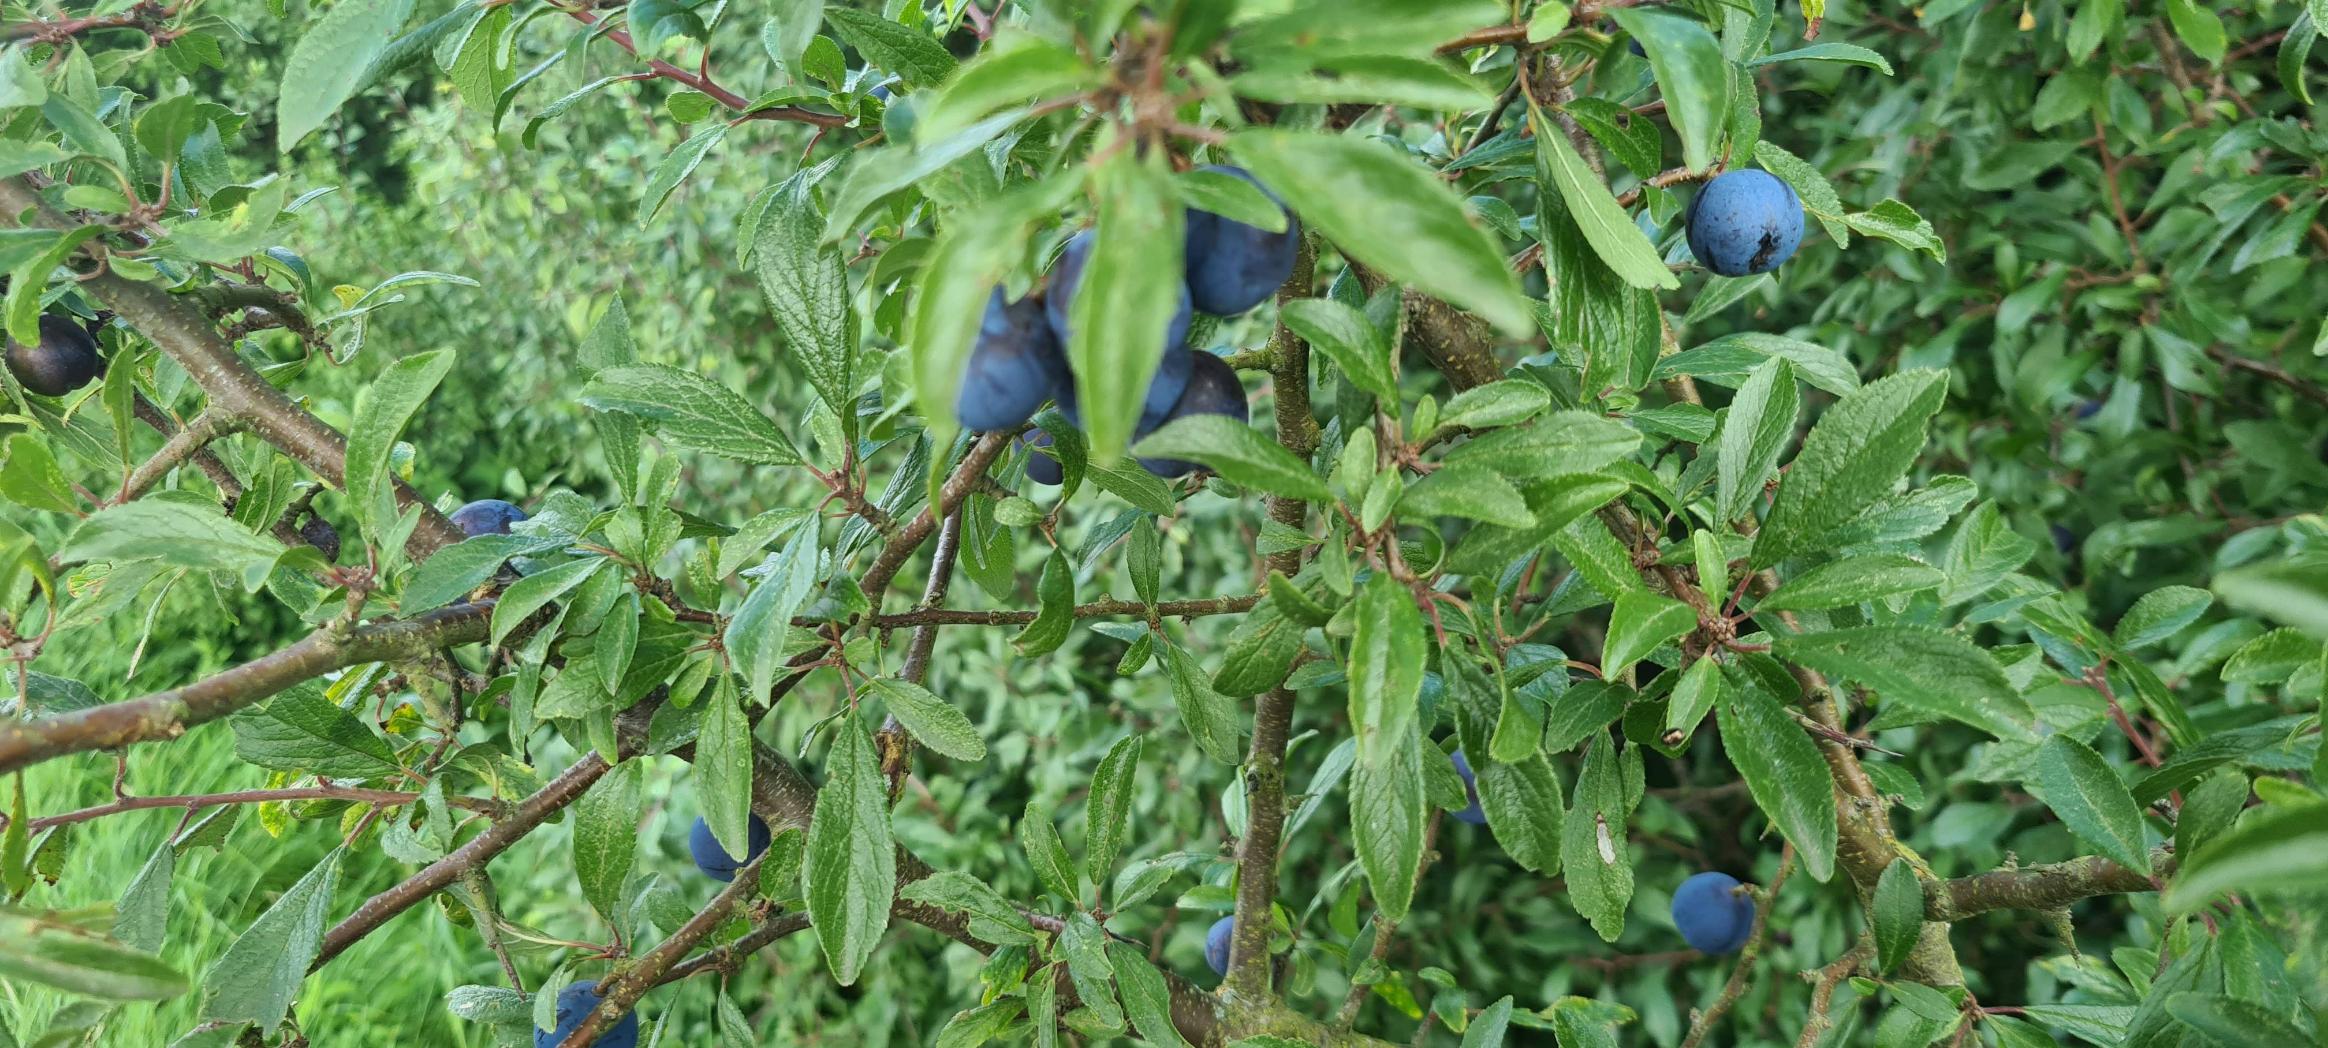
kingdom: Plantae
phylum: Tracheophyta
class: Magnoliopsida
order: Rosales
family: Rosaceae
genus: Prunus
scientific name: Prunus spinosa
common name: Slåen
